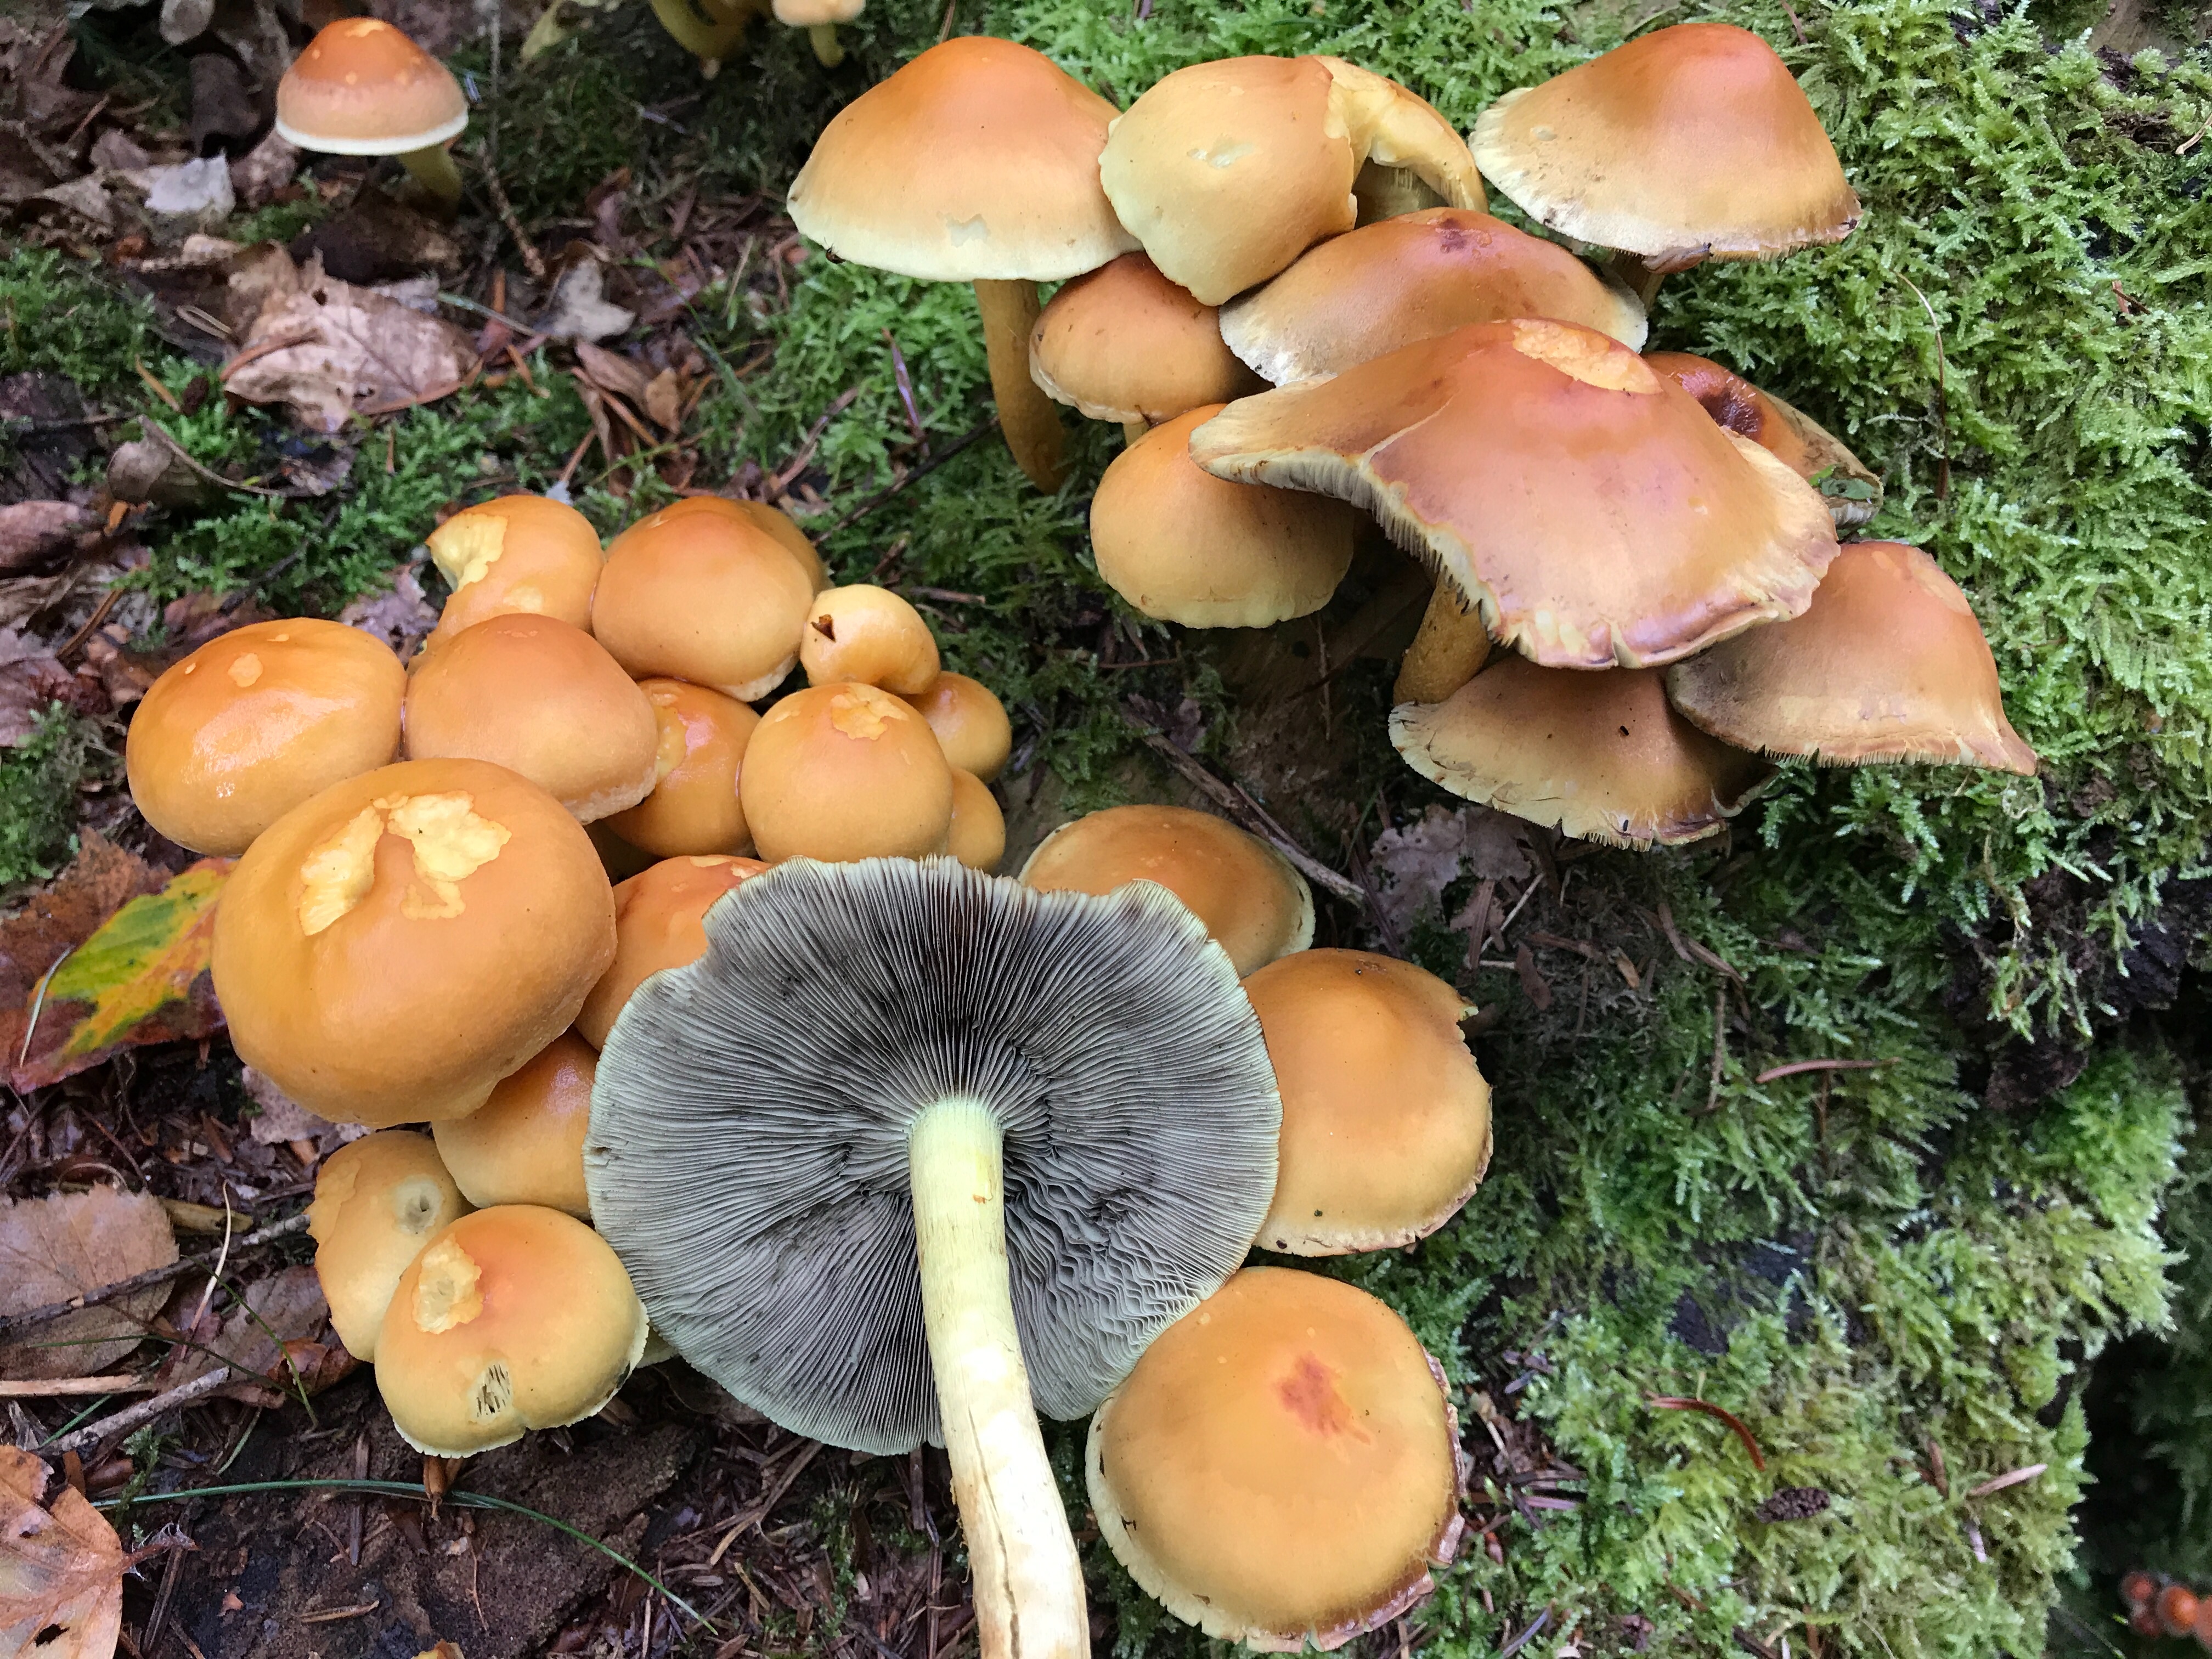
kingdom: Fungi
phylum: Basidiomycota
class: Agaricomycetes
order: Agaricales
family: Strophariaceae
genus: Hypholoma
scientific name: Hypholoma fasciculare
